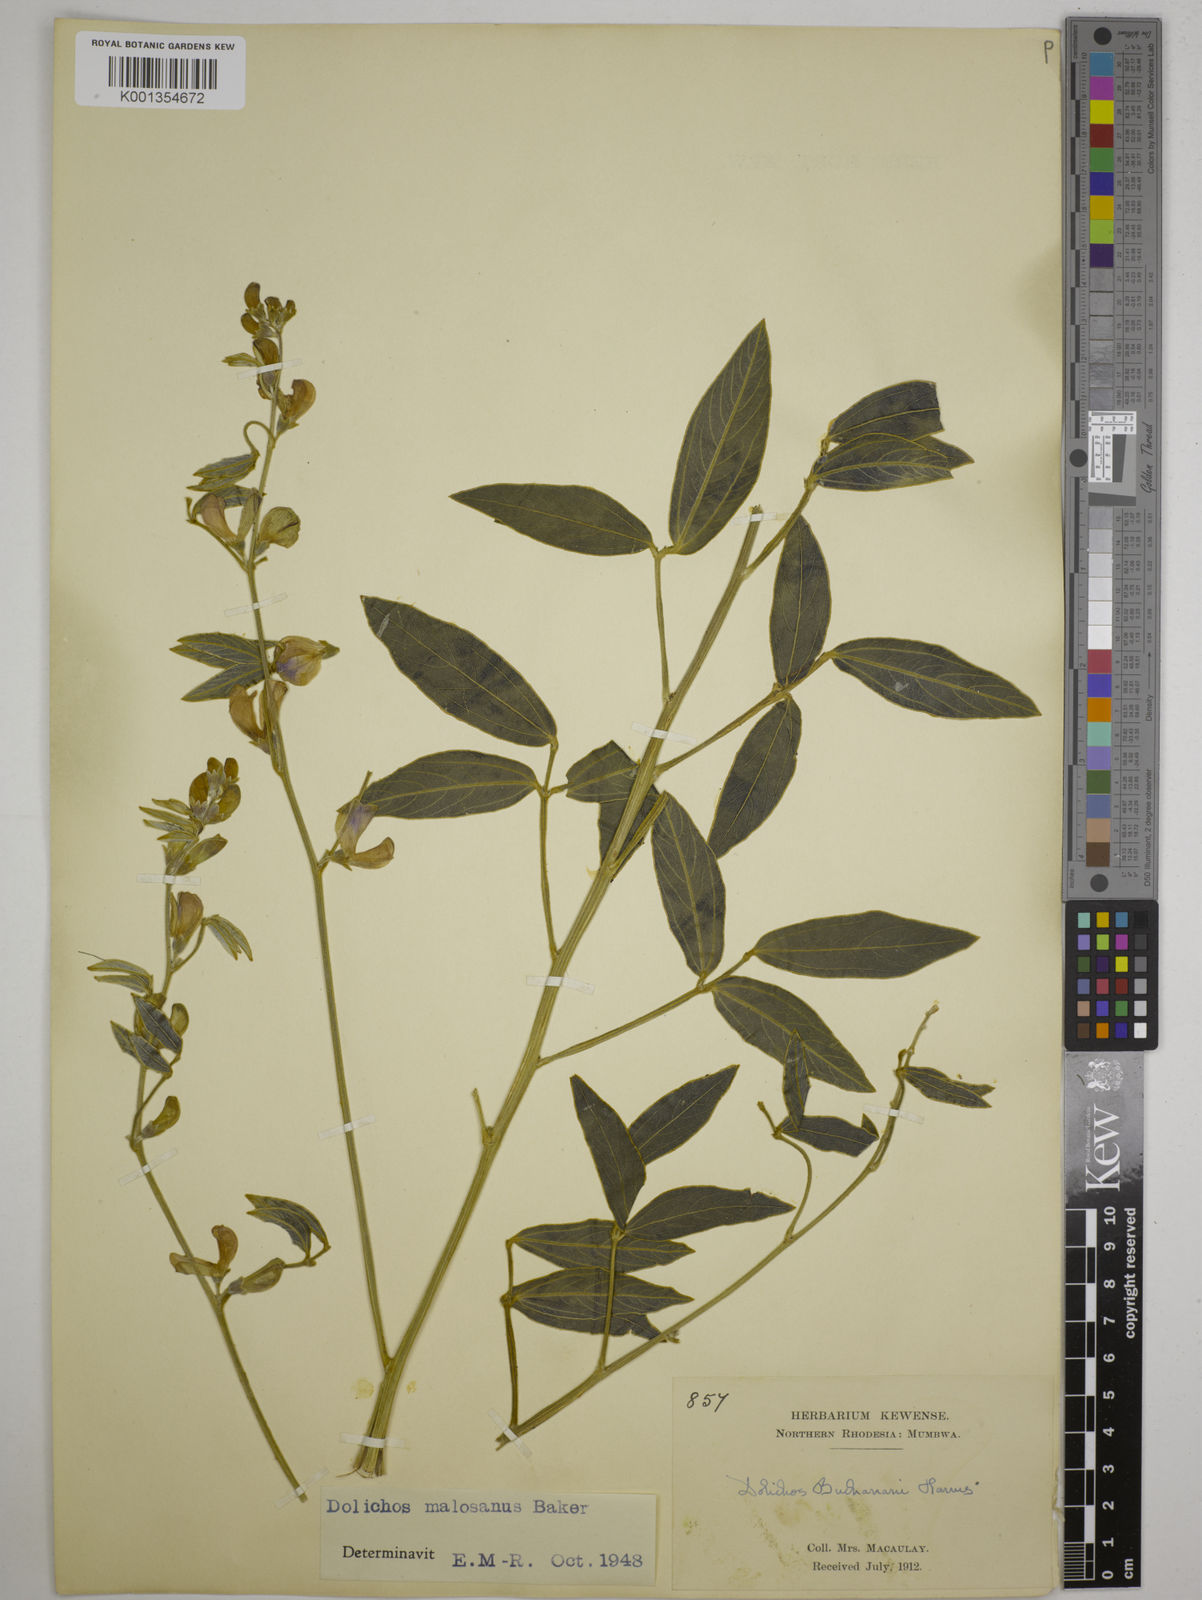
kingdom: Plantae
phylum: Tracheophyta
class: Magnoliopsida
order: Fabales
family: Fabaceae
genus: Dolichos
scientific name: Dolichos kilimandscharicus
